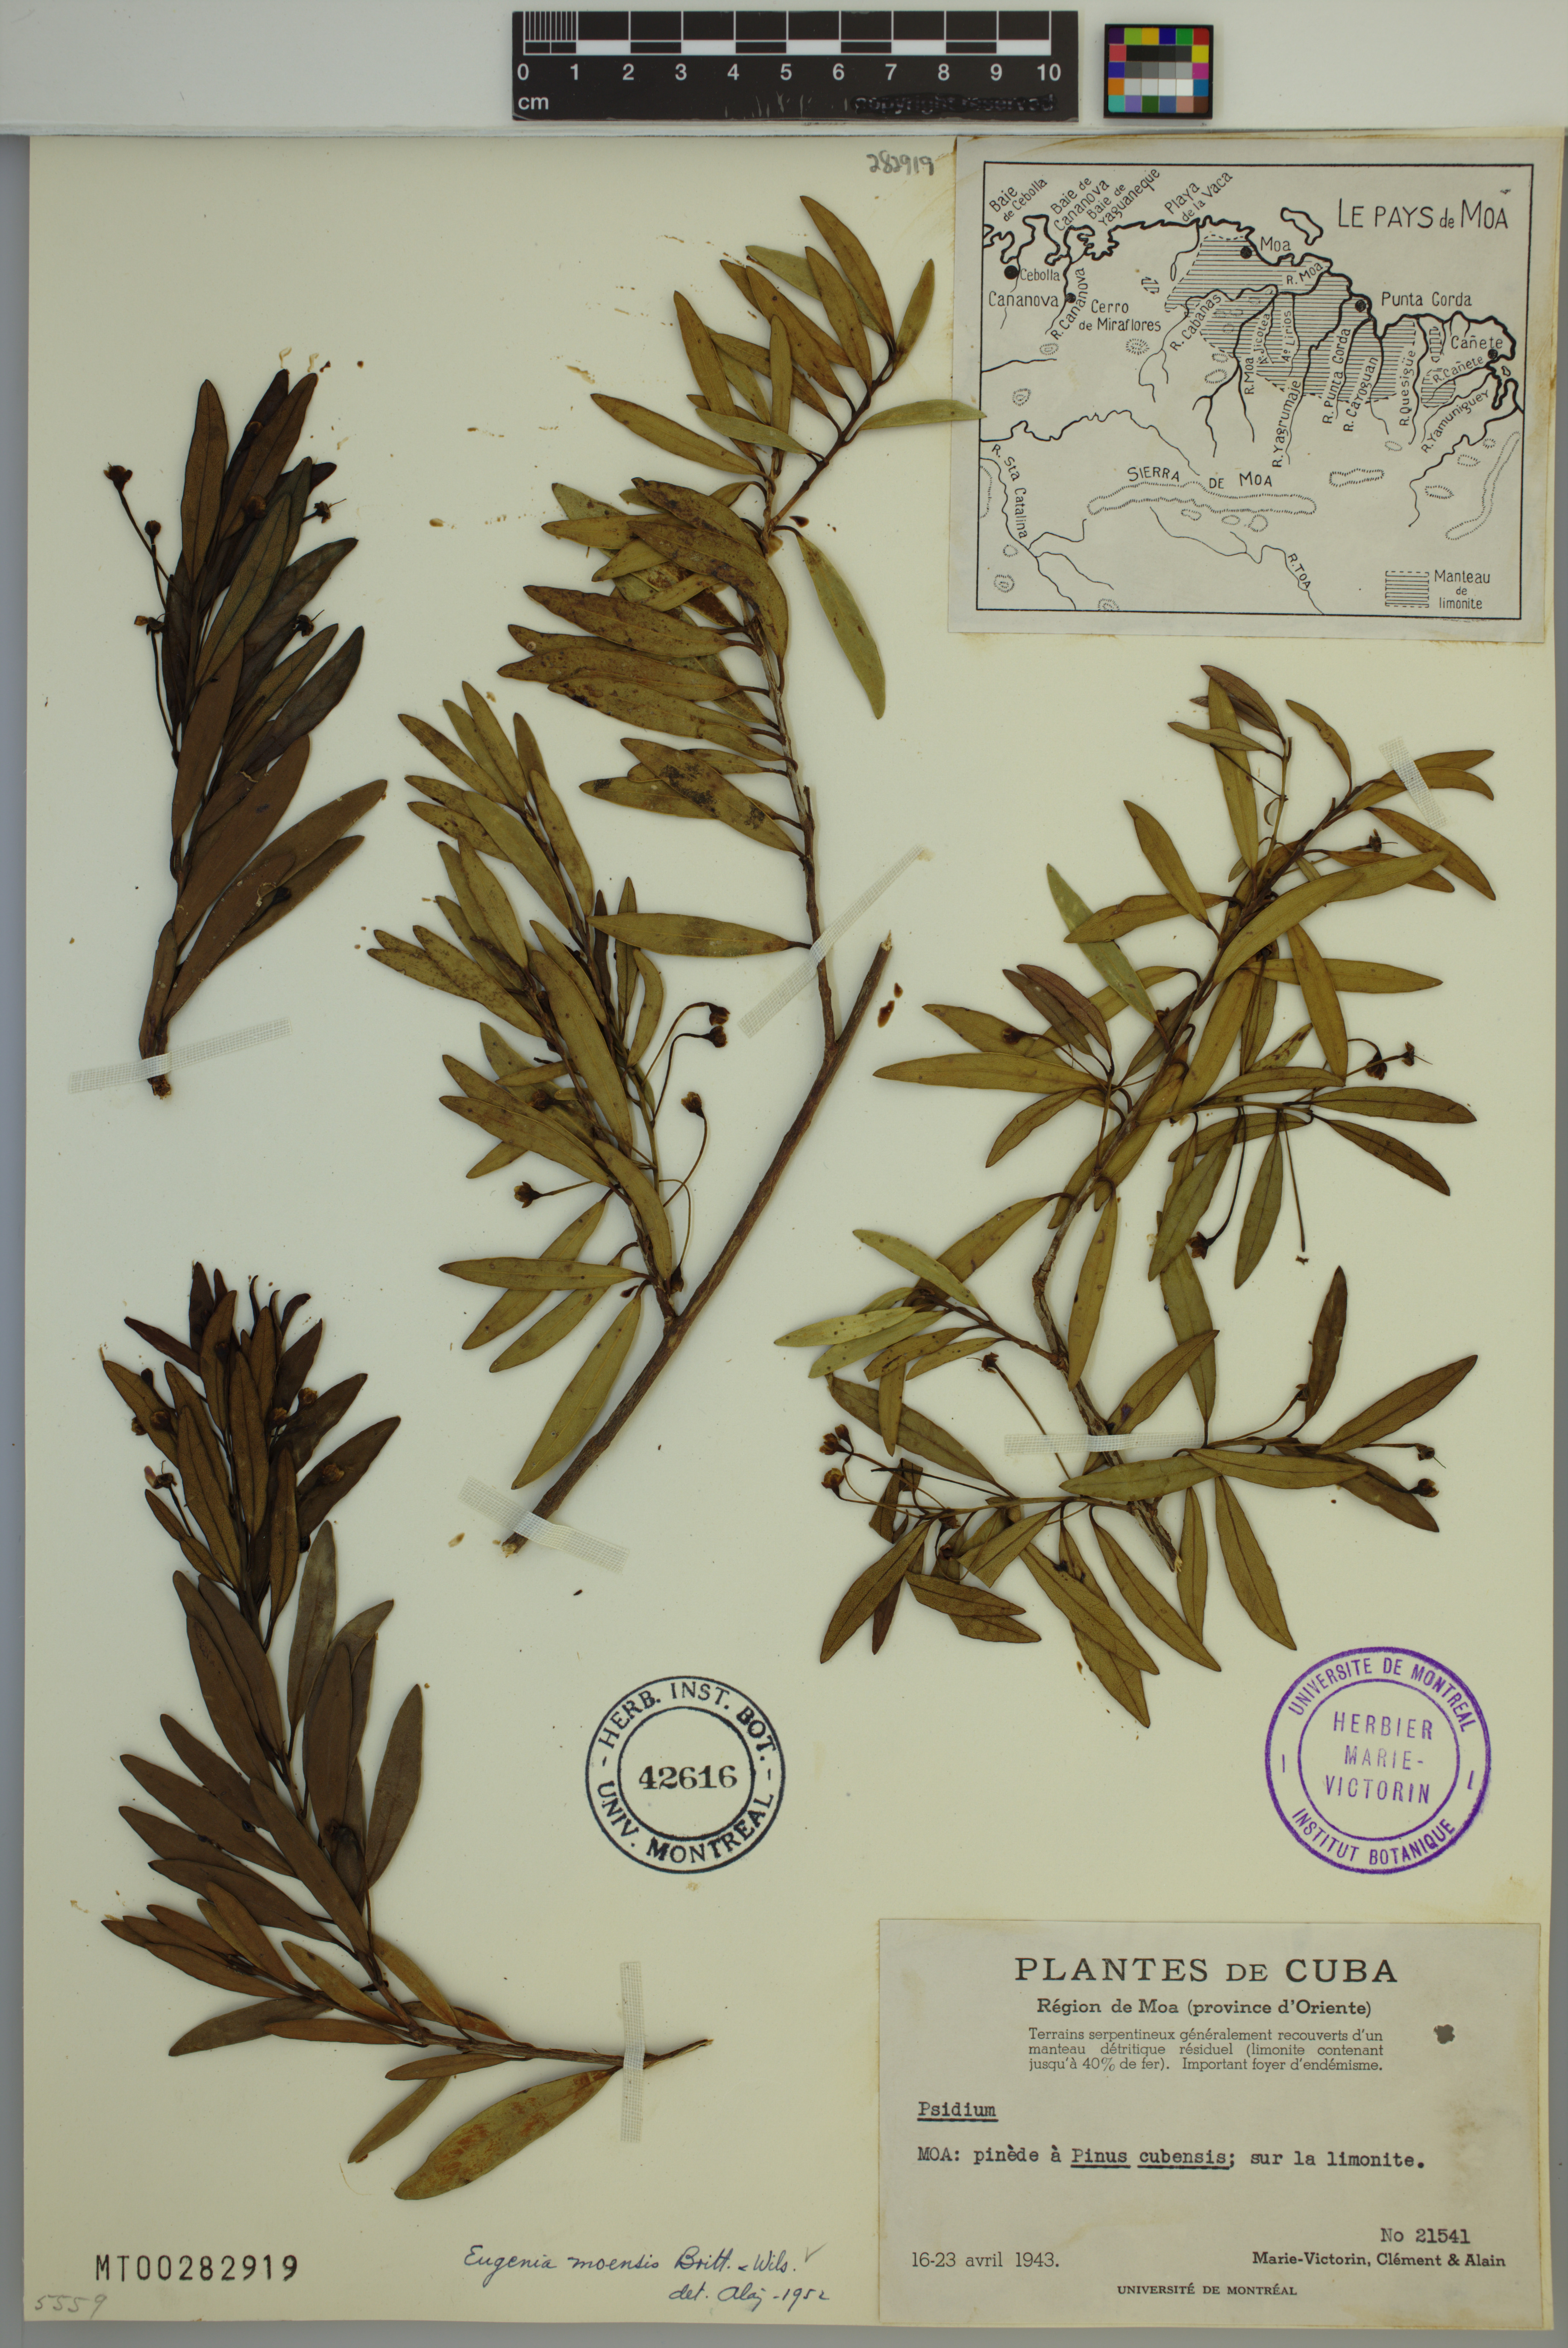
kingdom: Plantae
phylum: Tracheophyta
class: Magnoliopsida
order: Myrtales
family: Myrtaceae
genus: Eugenia
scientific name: Eugenia moensis
